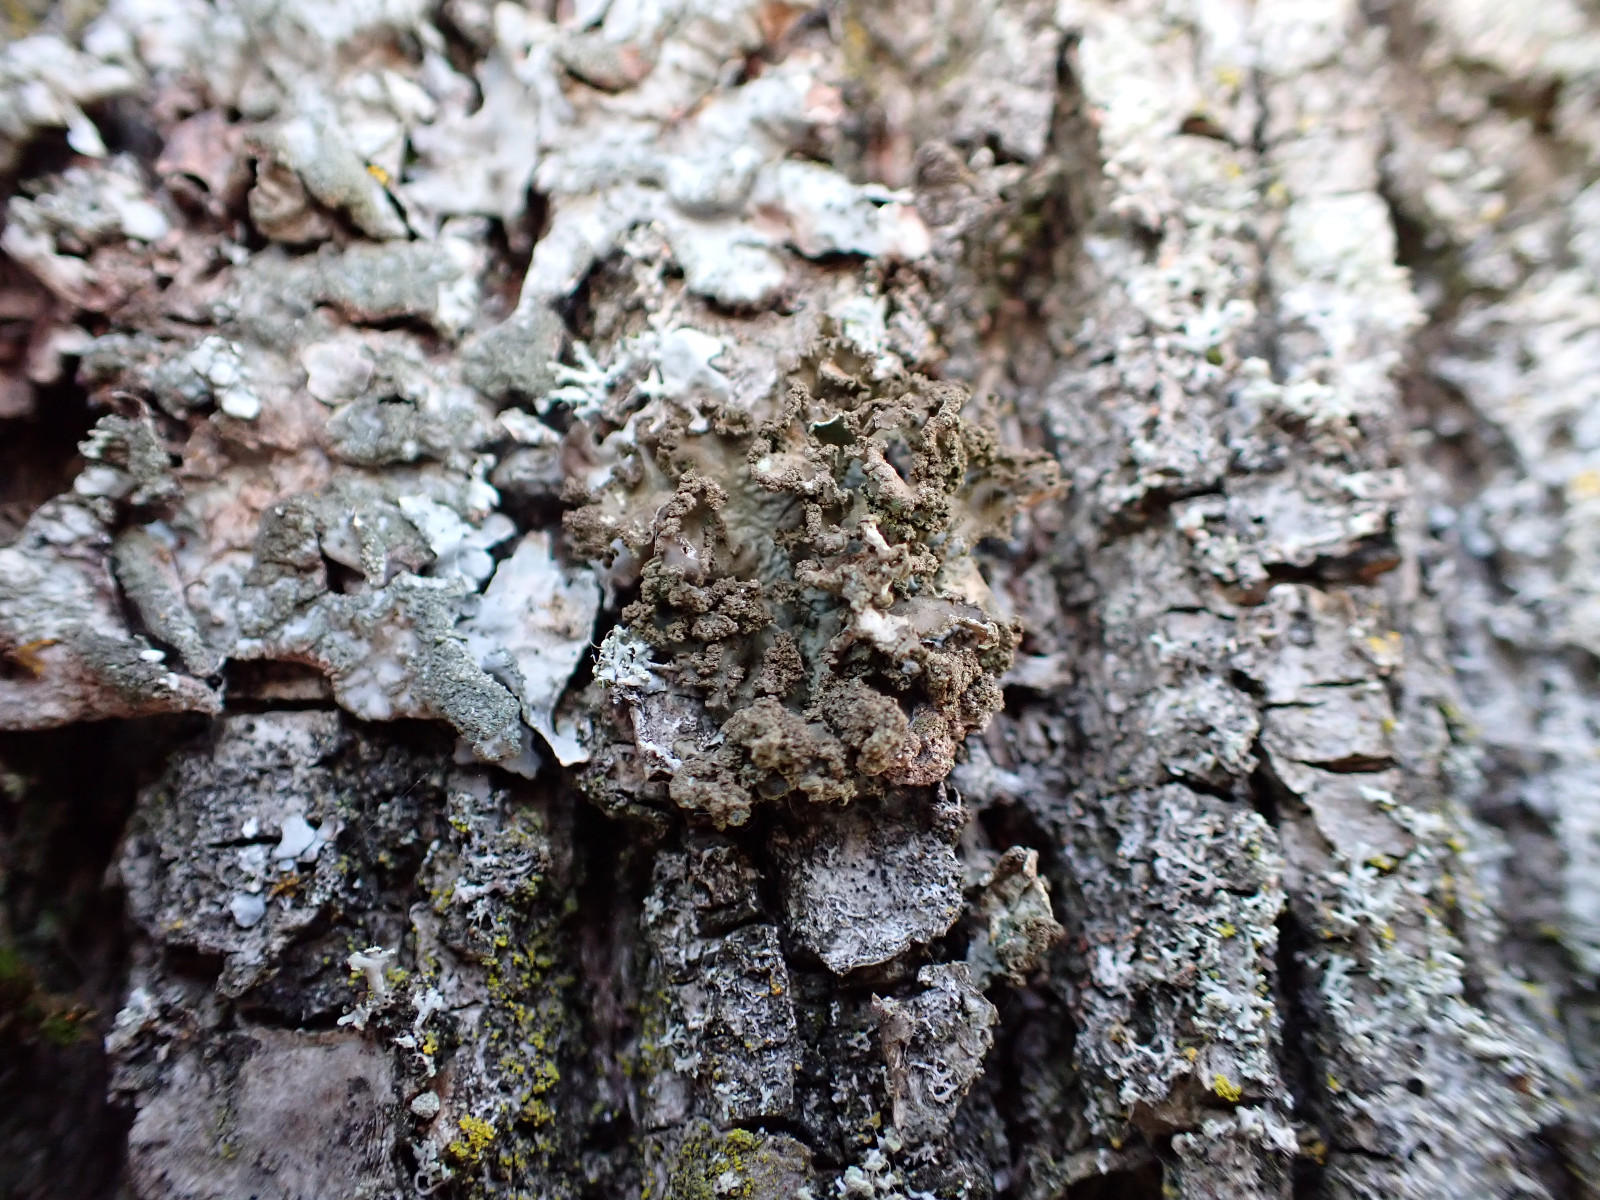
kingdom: Fungi
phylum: Ascomycota
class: Lecanoromycetes
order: Lecanorales
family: Parmeliaceae
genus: Nephromopsis
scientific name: Nephromopsis chlorophylla
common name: olivenbrun kruslav
